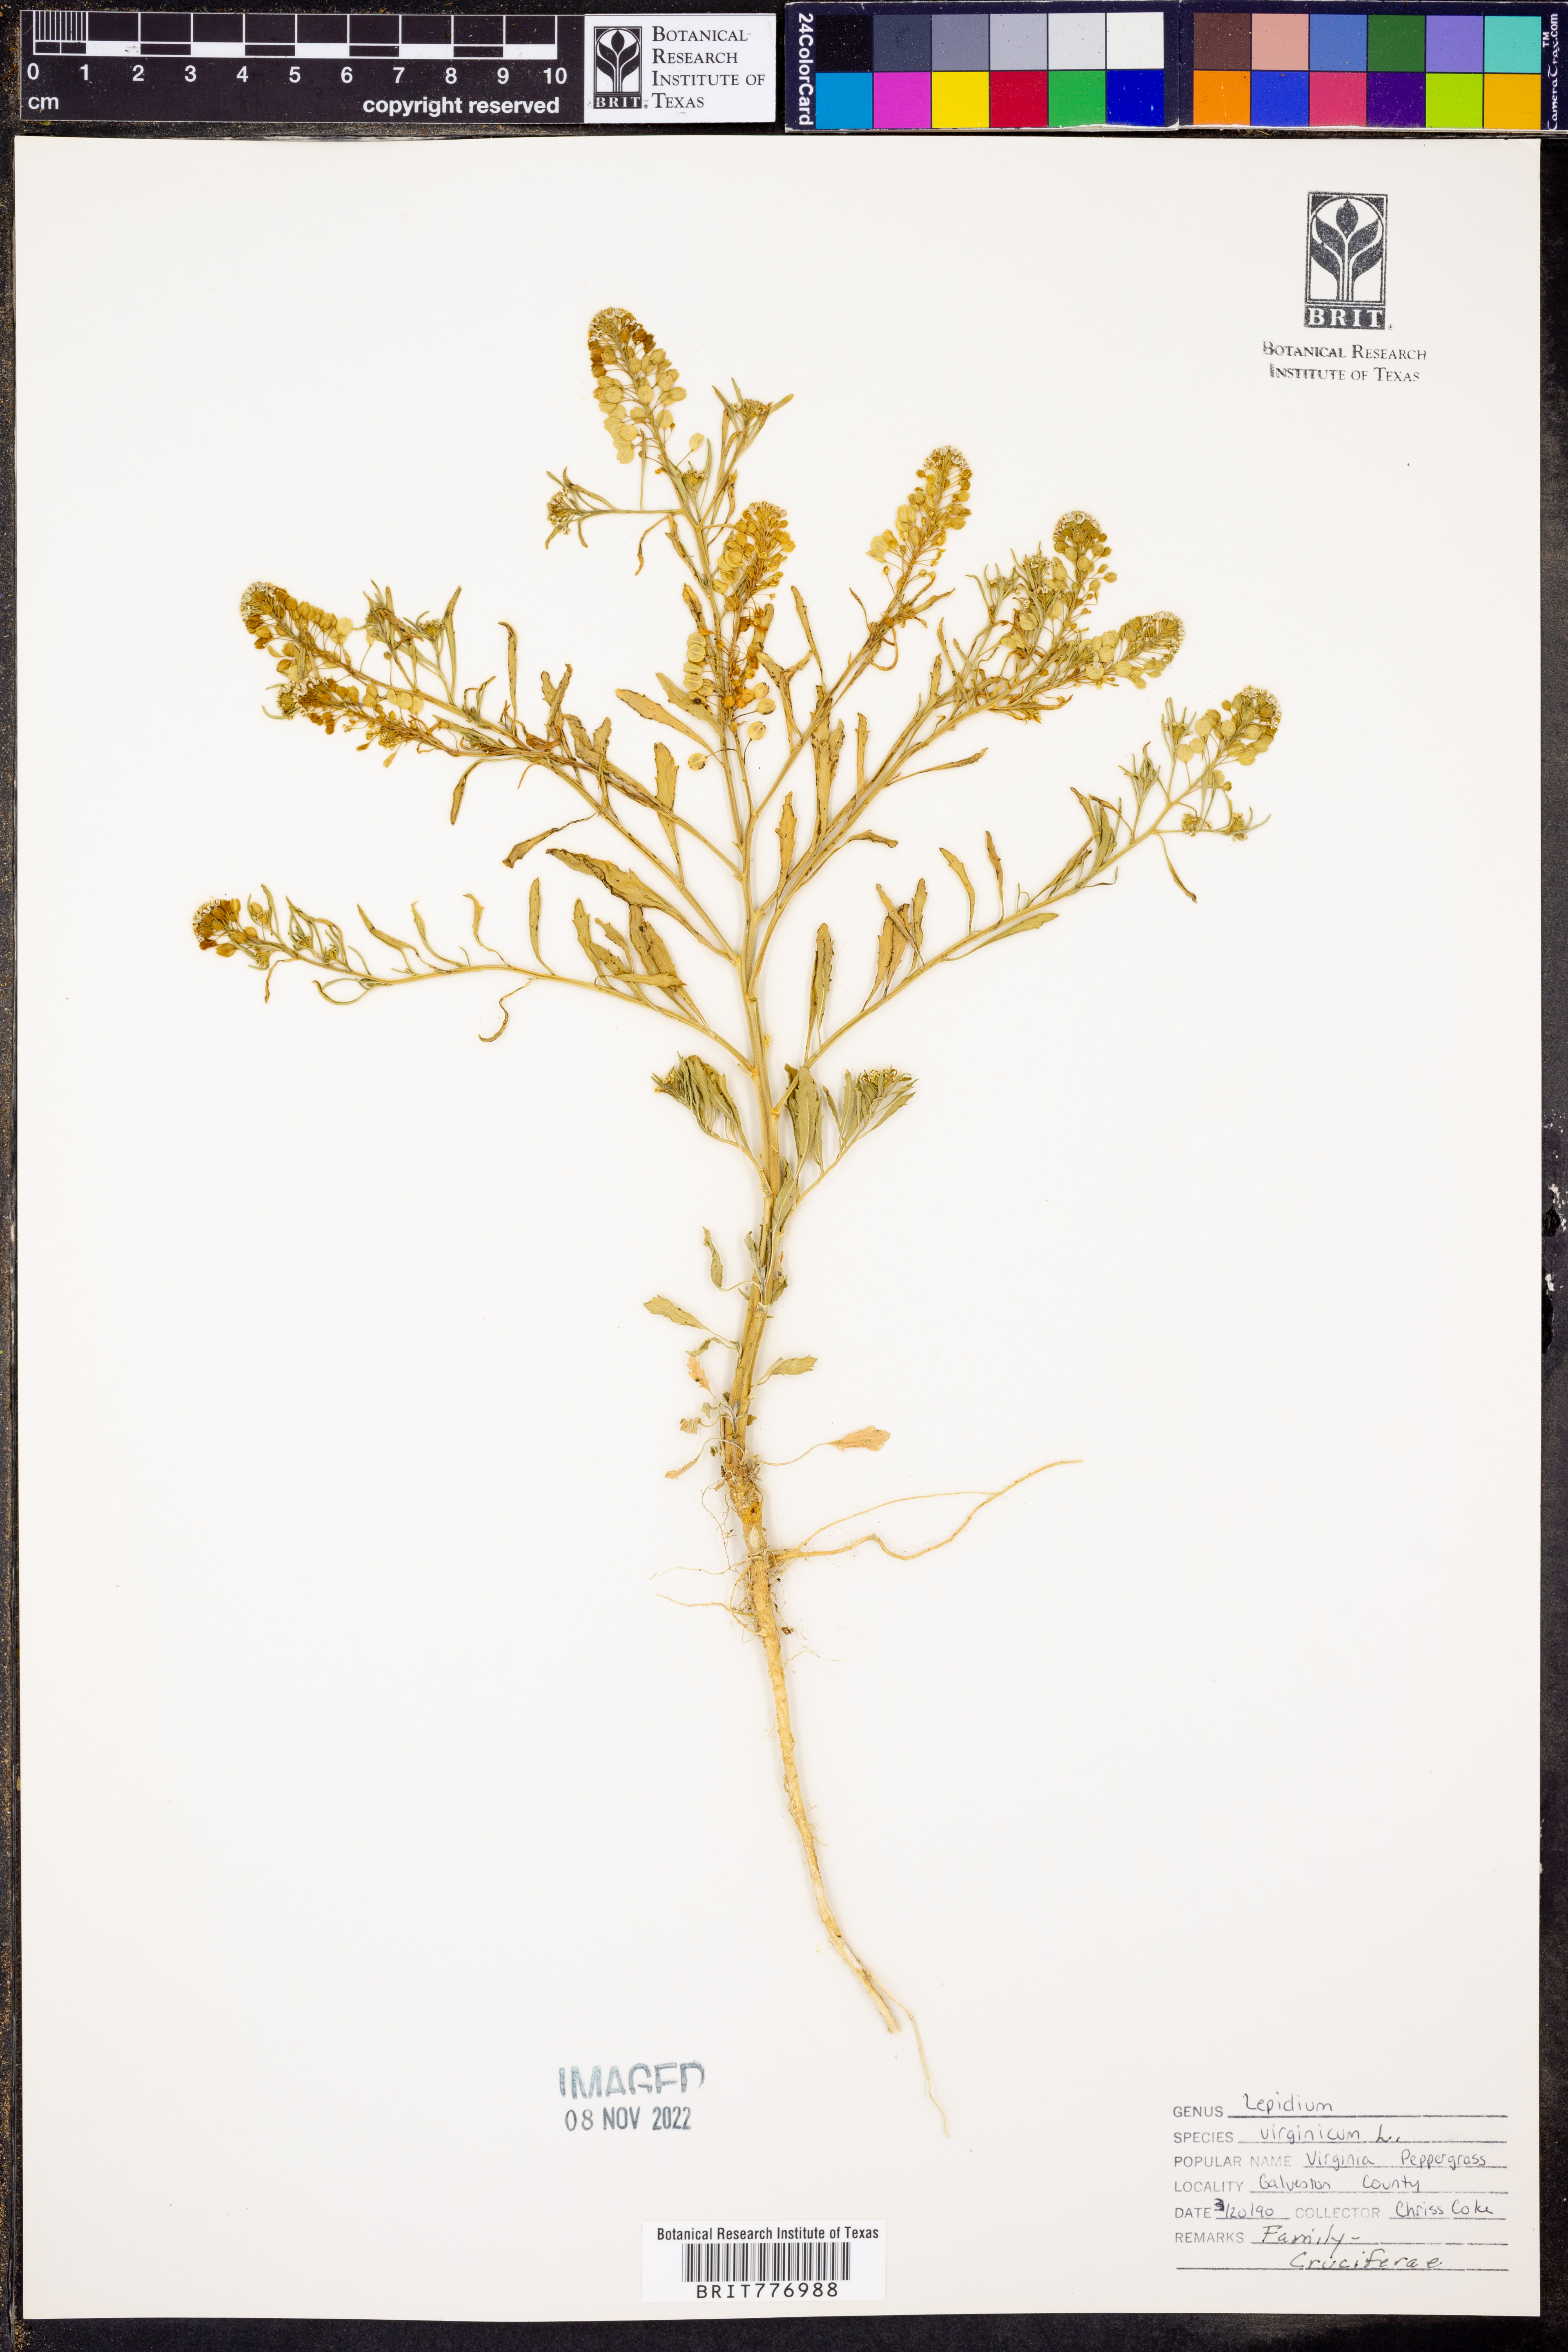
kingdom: Plantae
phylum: Tracheophyta
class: Magnoliopsida
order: Brassicales
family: Brassicaceae
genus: Lepidium
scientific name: Lepidium virginicum
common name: Least pepperwort
